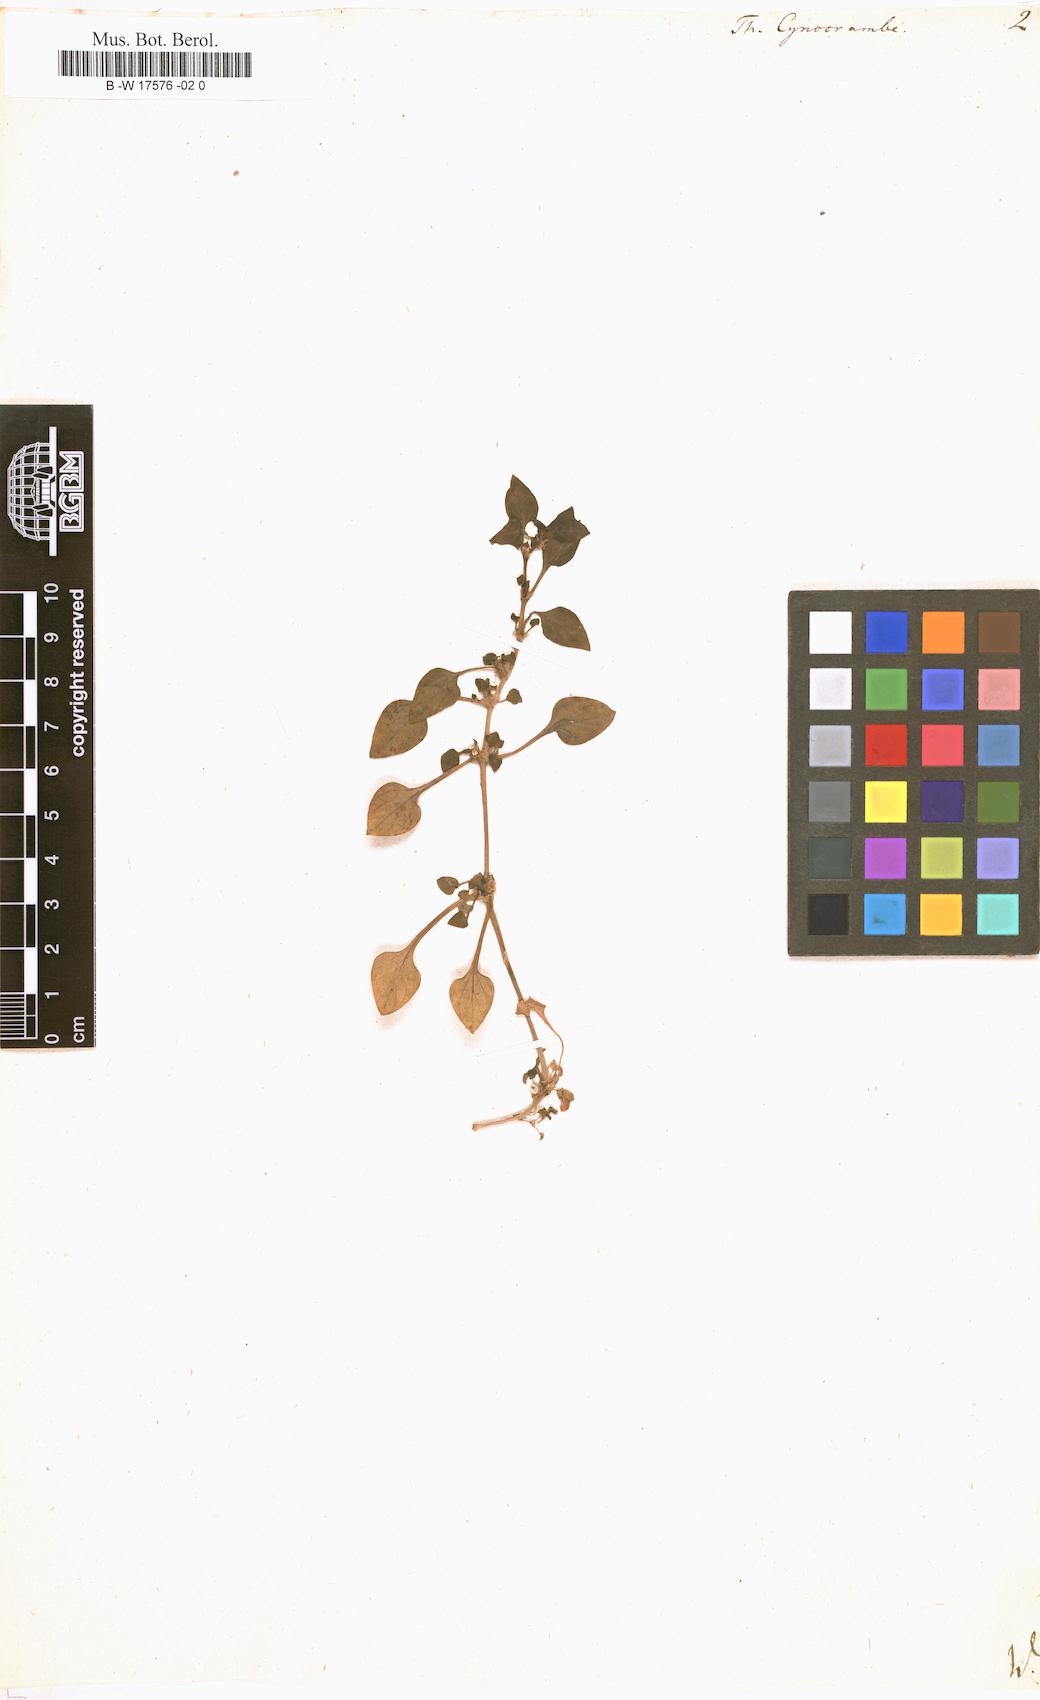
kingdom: Plantae
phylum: Tracheophyta
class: Magnoliopsida
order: Gentianales
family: Rubiaceae
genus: Theligonum
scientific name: Theligonum cynocrambe
